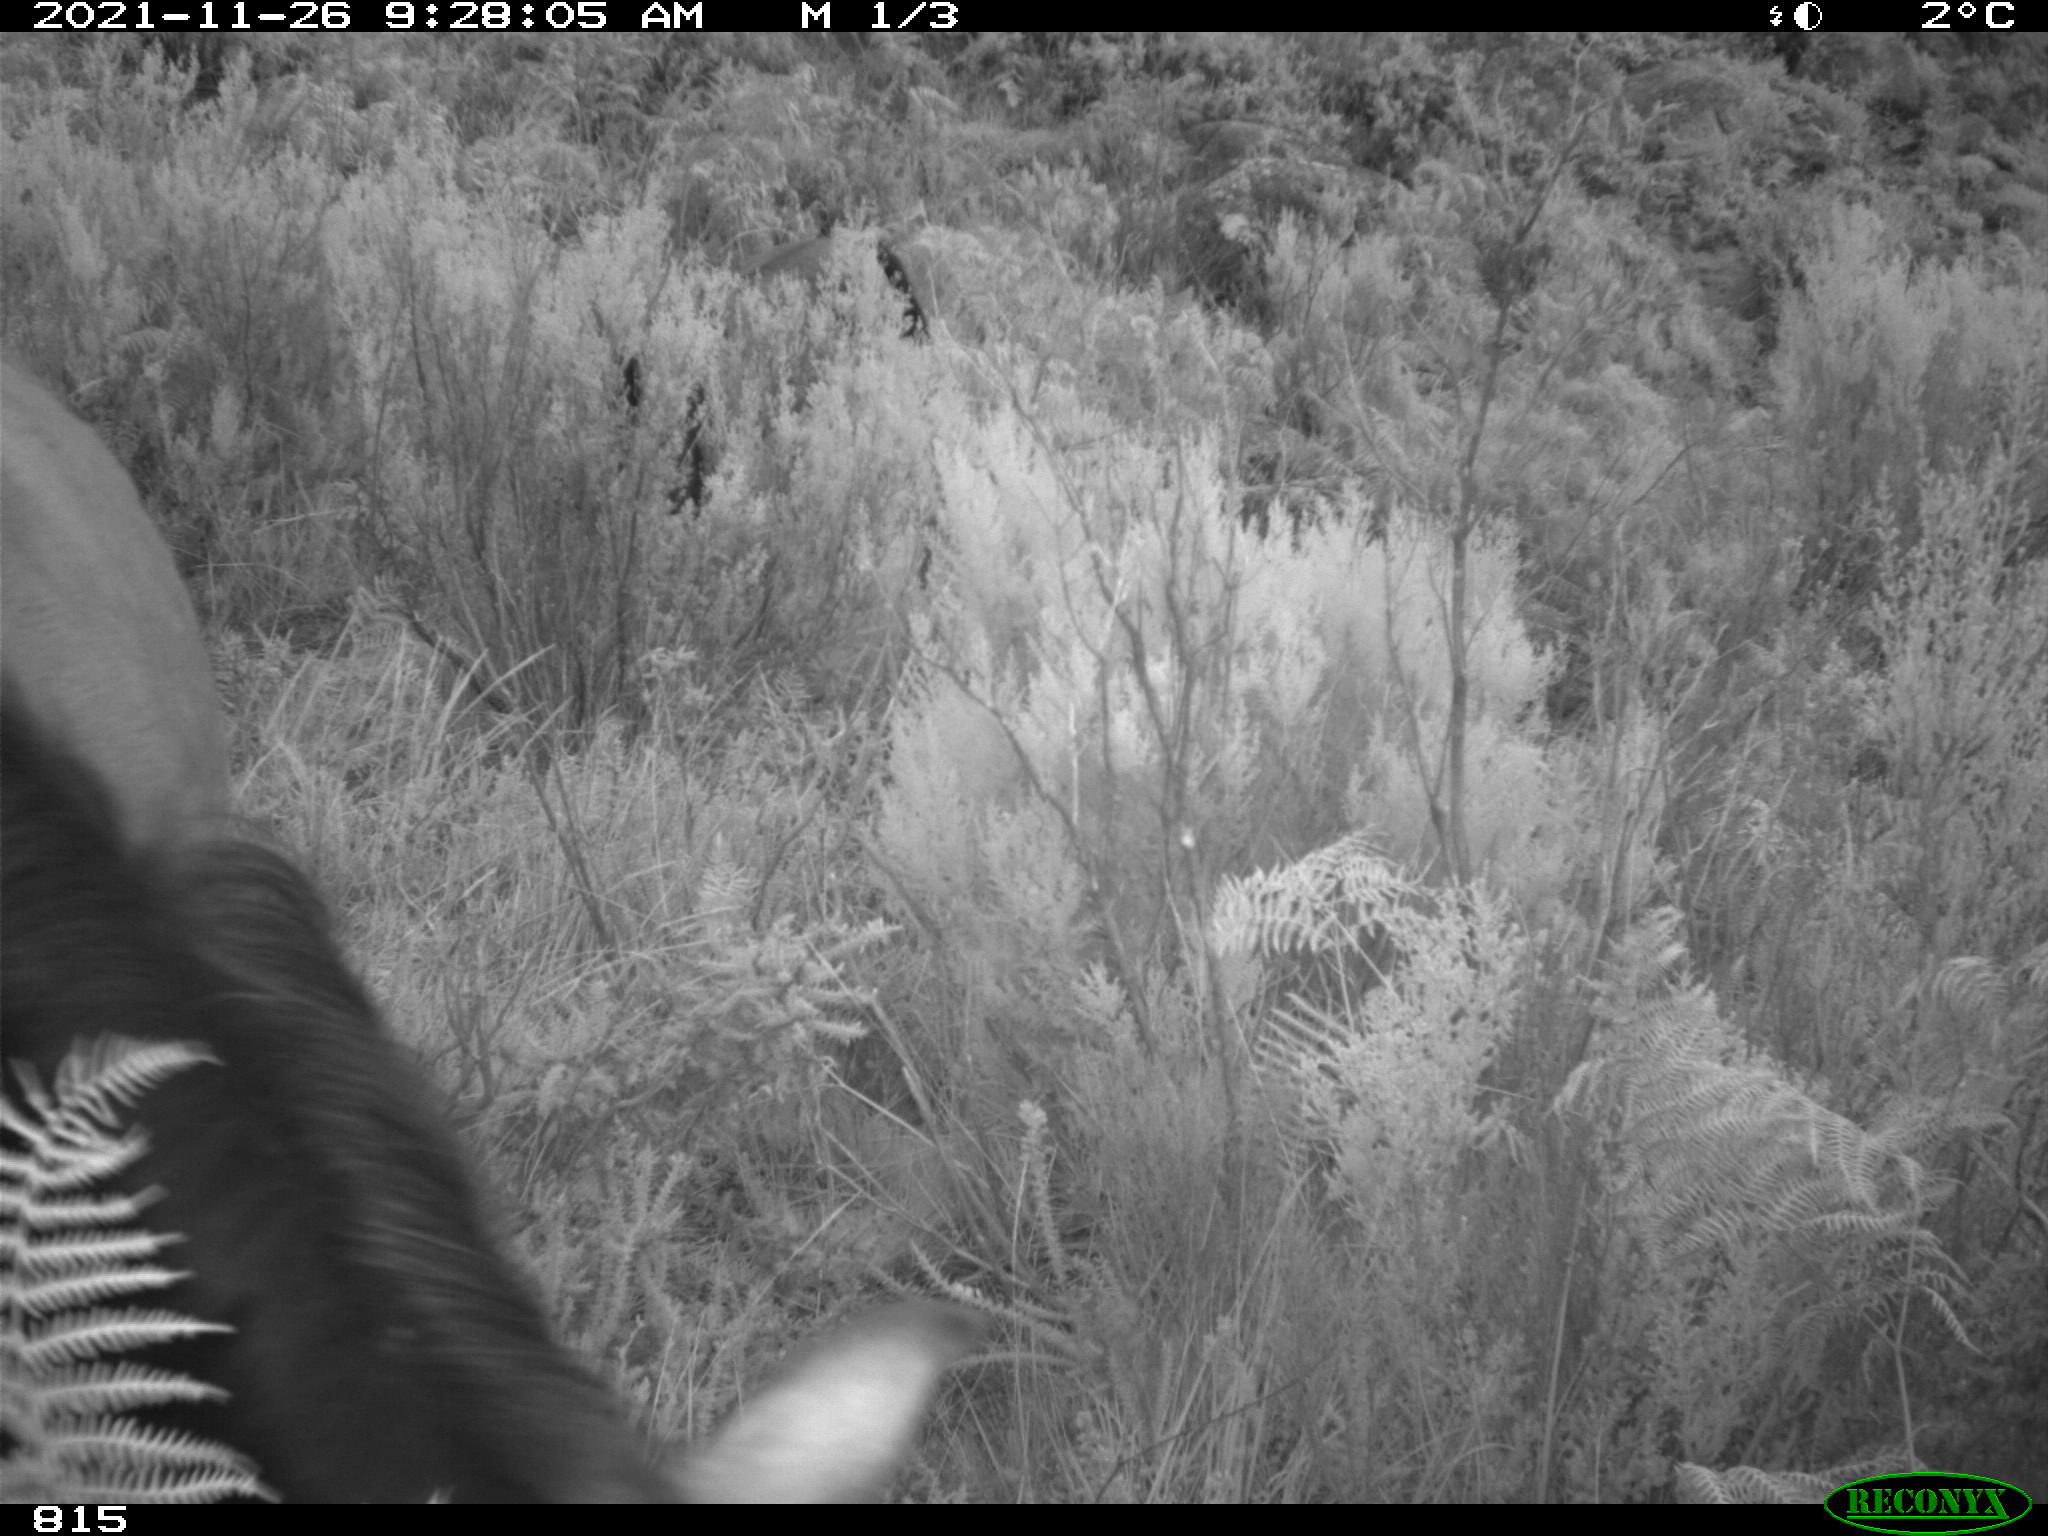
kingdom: Animalia
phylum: Chordata
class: Mammalia
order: Perissodactyla
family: Equidae
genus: Equus
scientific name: Equus caballus
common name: Horse
